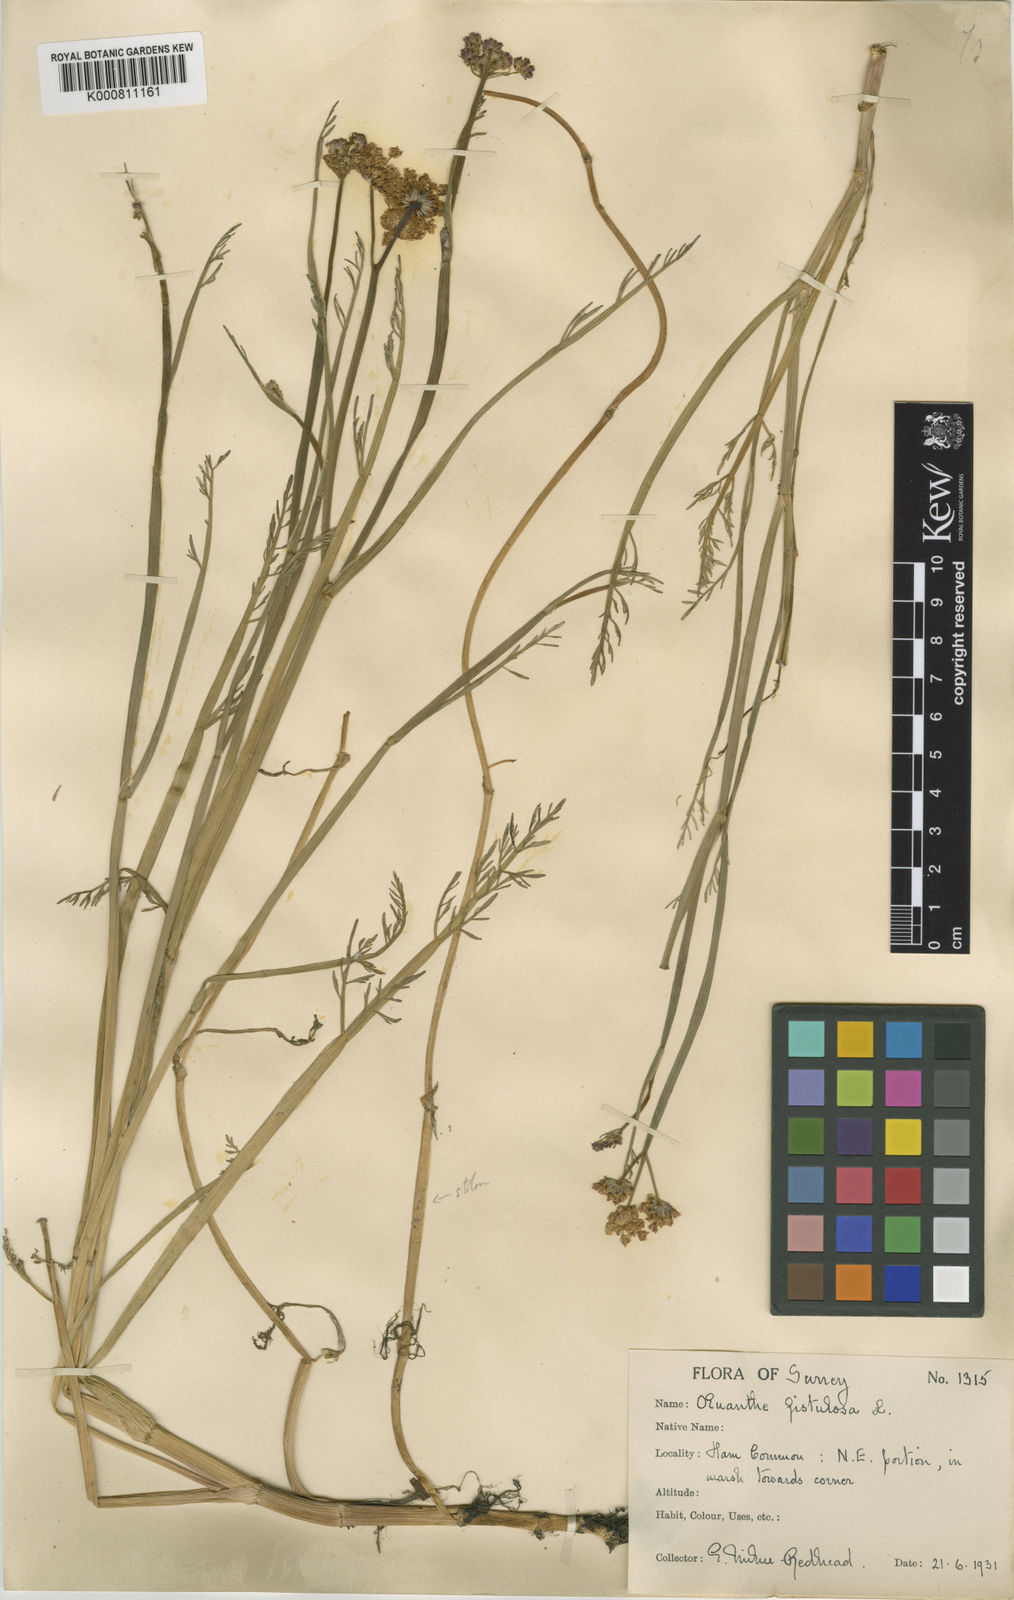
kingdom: Plantae
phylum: Tracheophyta
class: Magnoliopsida
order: Apiales
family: Apiaceae
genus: Oenanthe
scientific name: Oenanthe fistulosa
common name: Tubular water-dropwort
